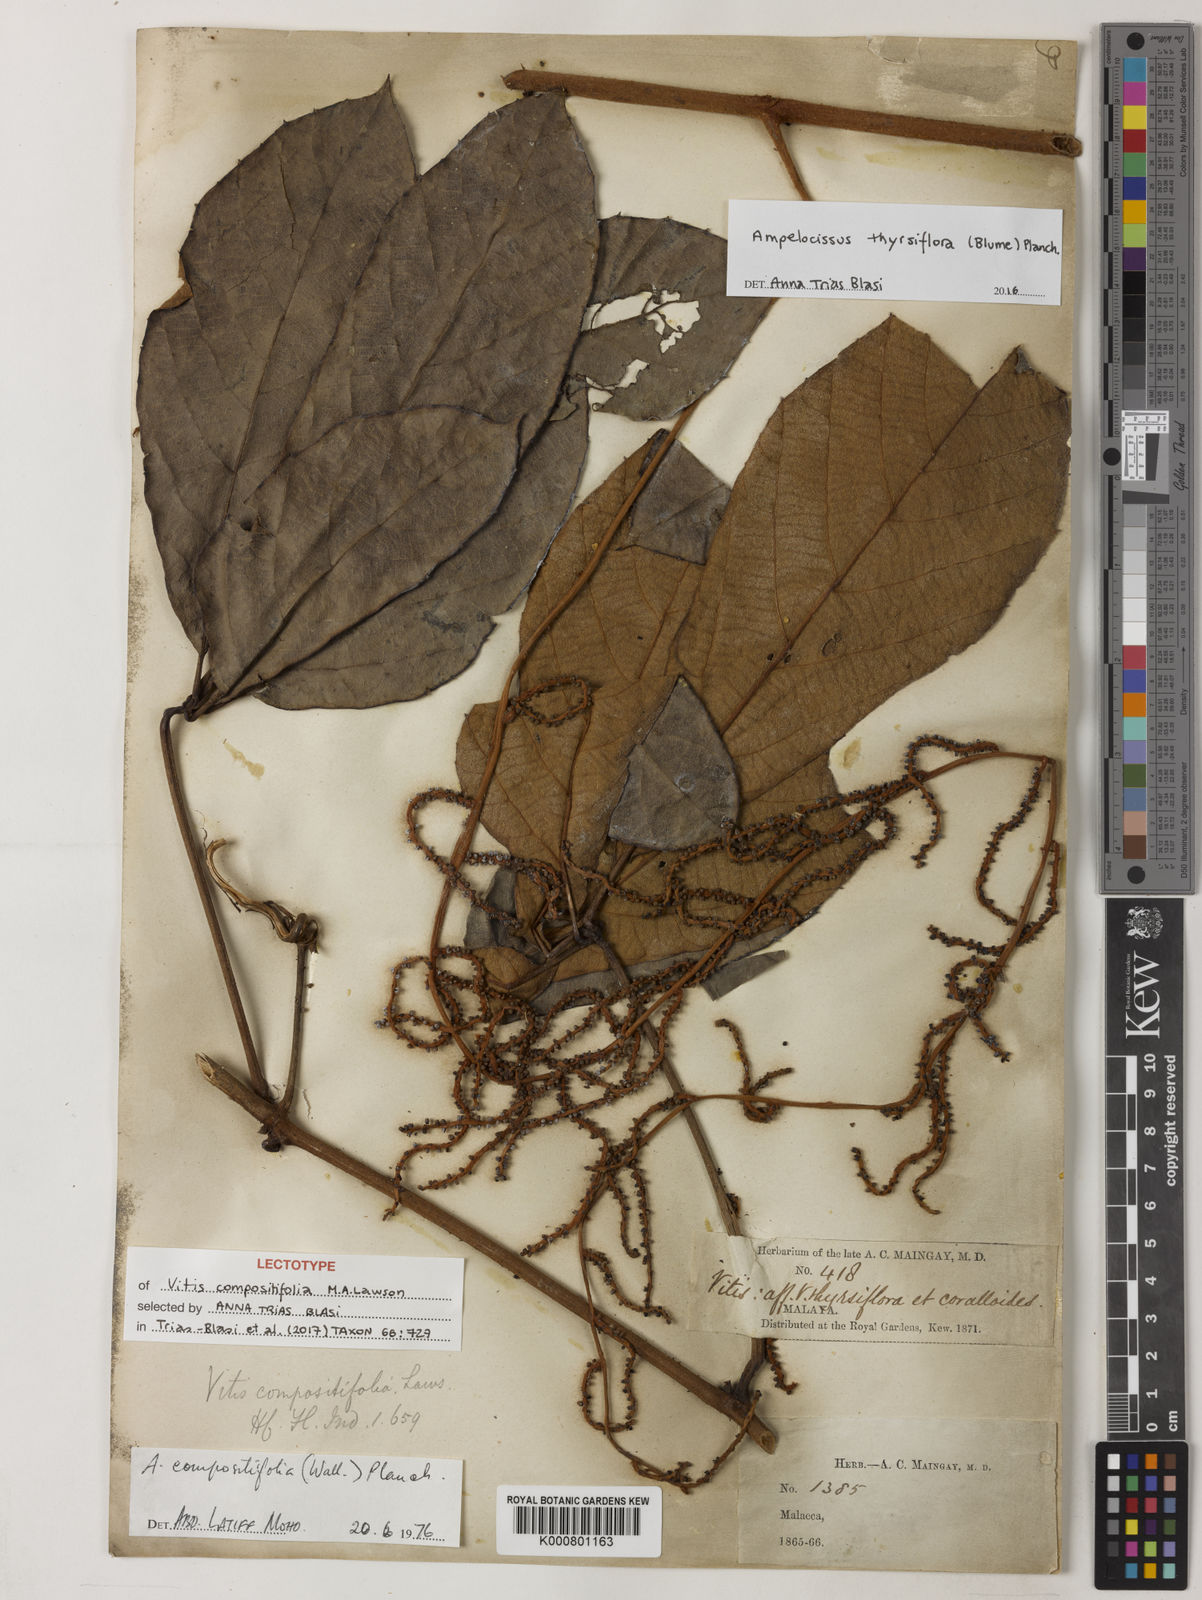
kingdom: Plantae
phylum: Tracheophyta
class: Magnoliopsida
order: Vitales
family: Vitaceae
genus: Ampelocissus
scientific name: Ampelocissus thyrsiflora
